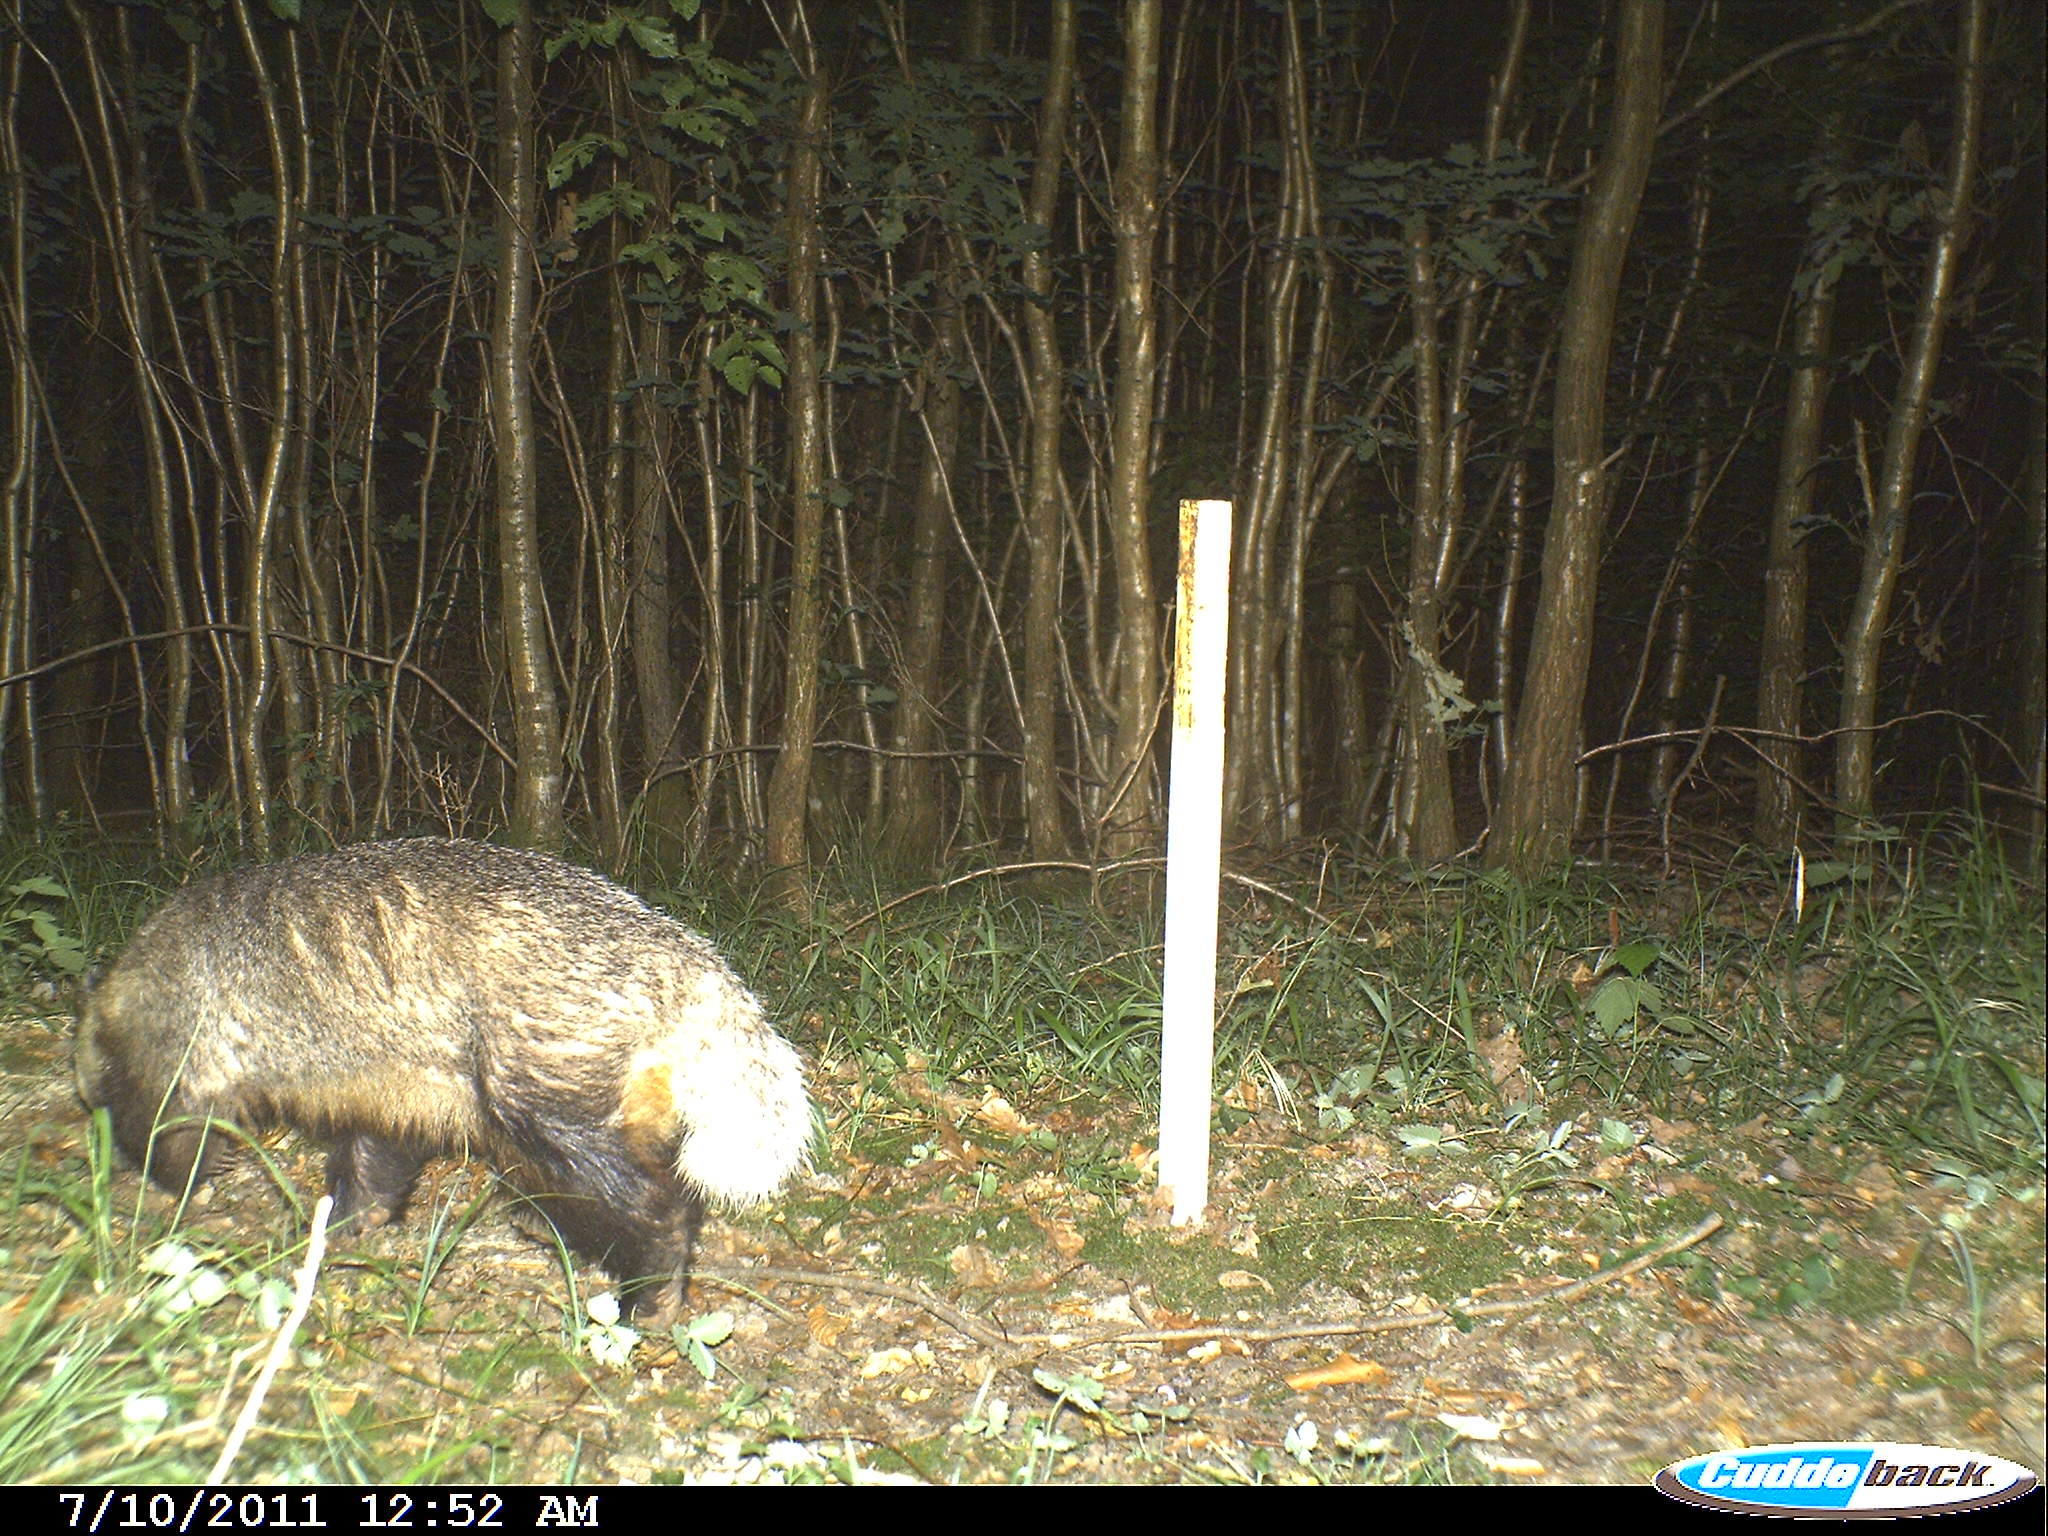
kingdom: Animalia
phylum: Chordata
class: Mammalia
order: Carnivora
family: Mustelidae
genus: Meles
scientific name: Meles meles
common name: Eurasian badger
